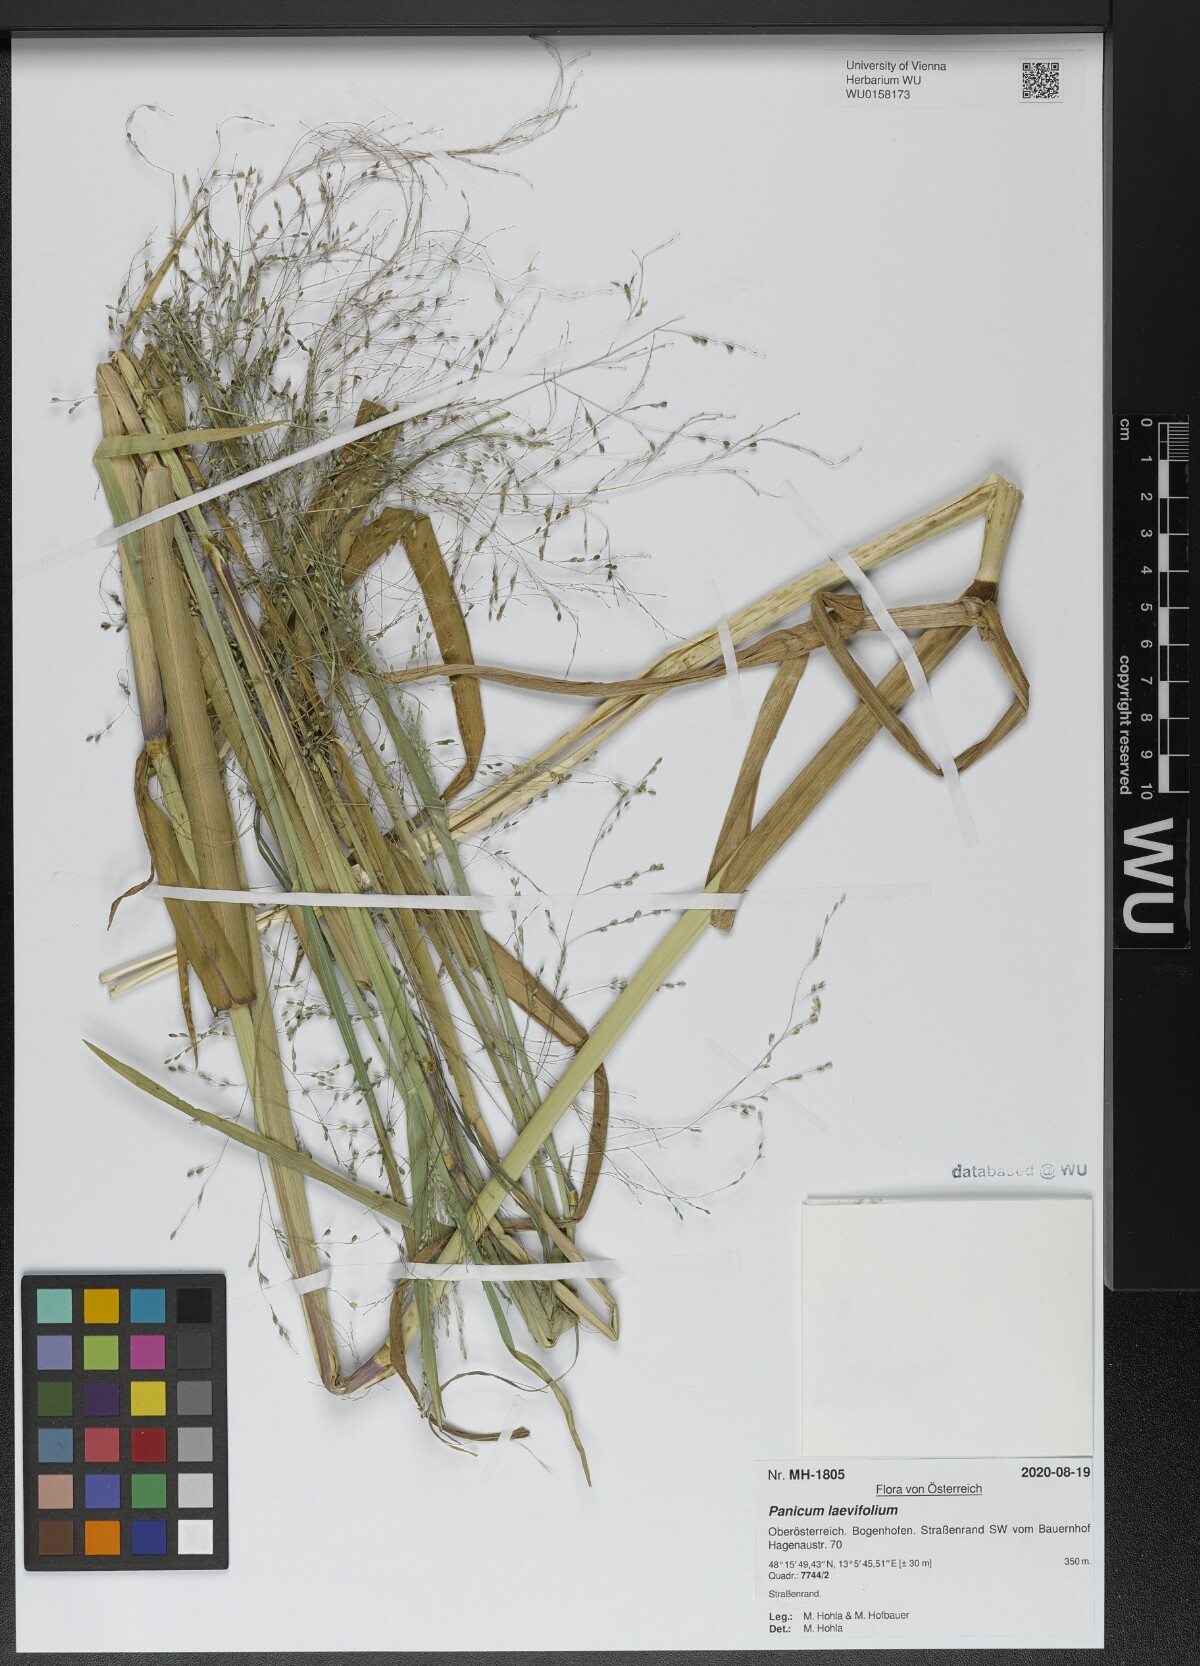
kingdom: Plantae
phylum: Tracheophyta
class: Liliopsida
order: Poales
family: Poaceae
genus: Panicum
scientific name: Panicum schinzii
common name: Sweet grass
